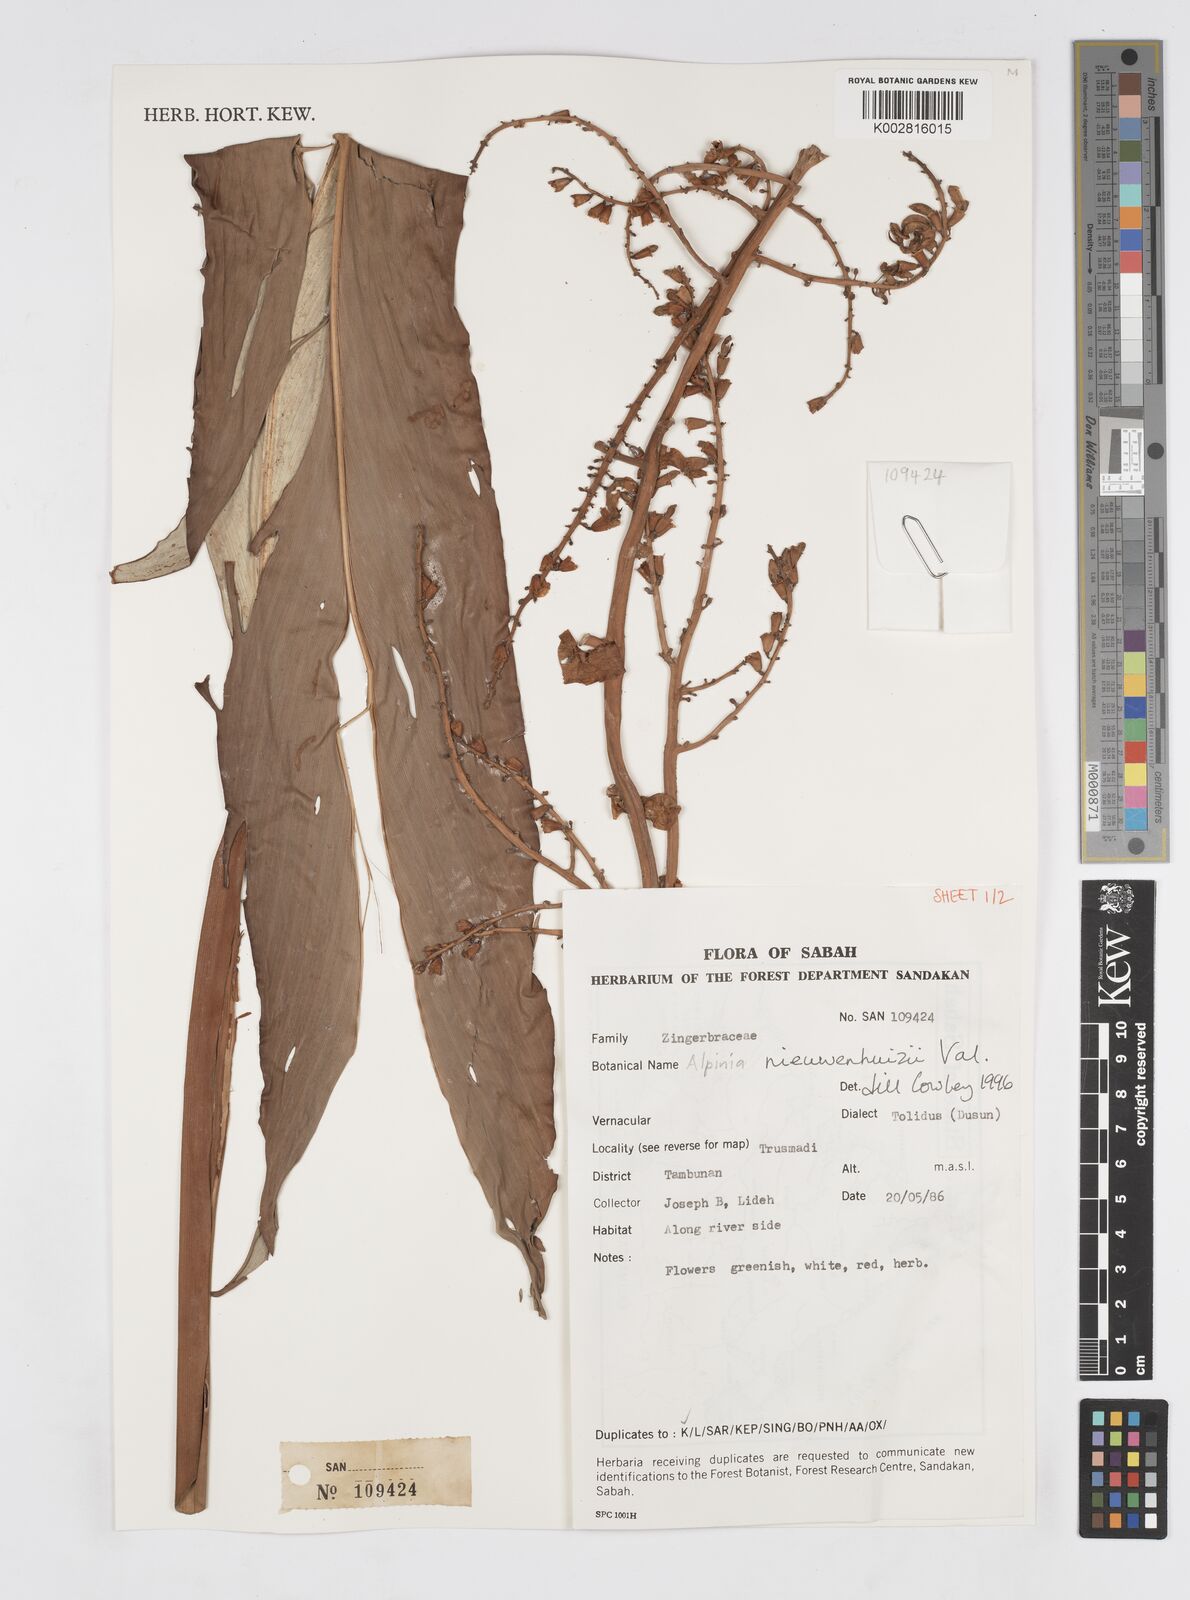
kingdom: Plantae
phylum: Tracheophyta
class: Liliopsida
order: Zingiberales
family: Zingiberaceae
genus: Alpinia
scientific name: Alpinia nieuwenhuizii
